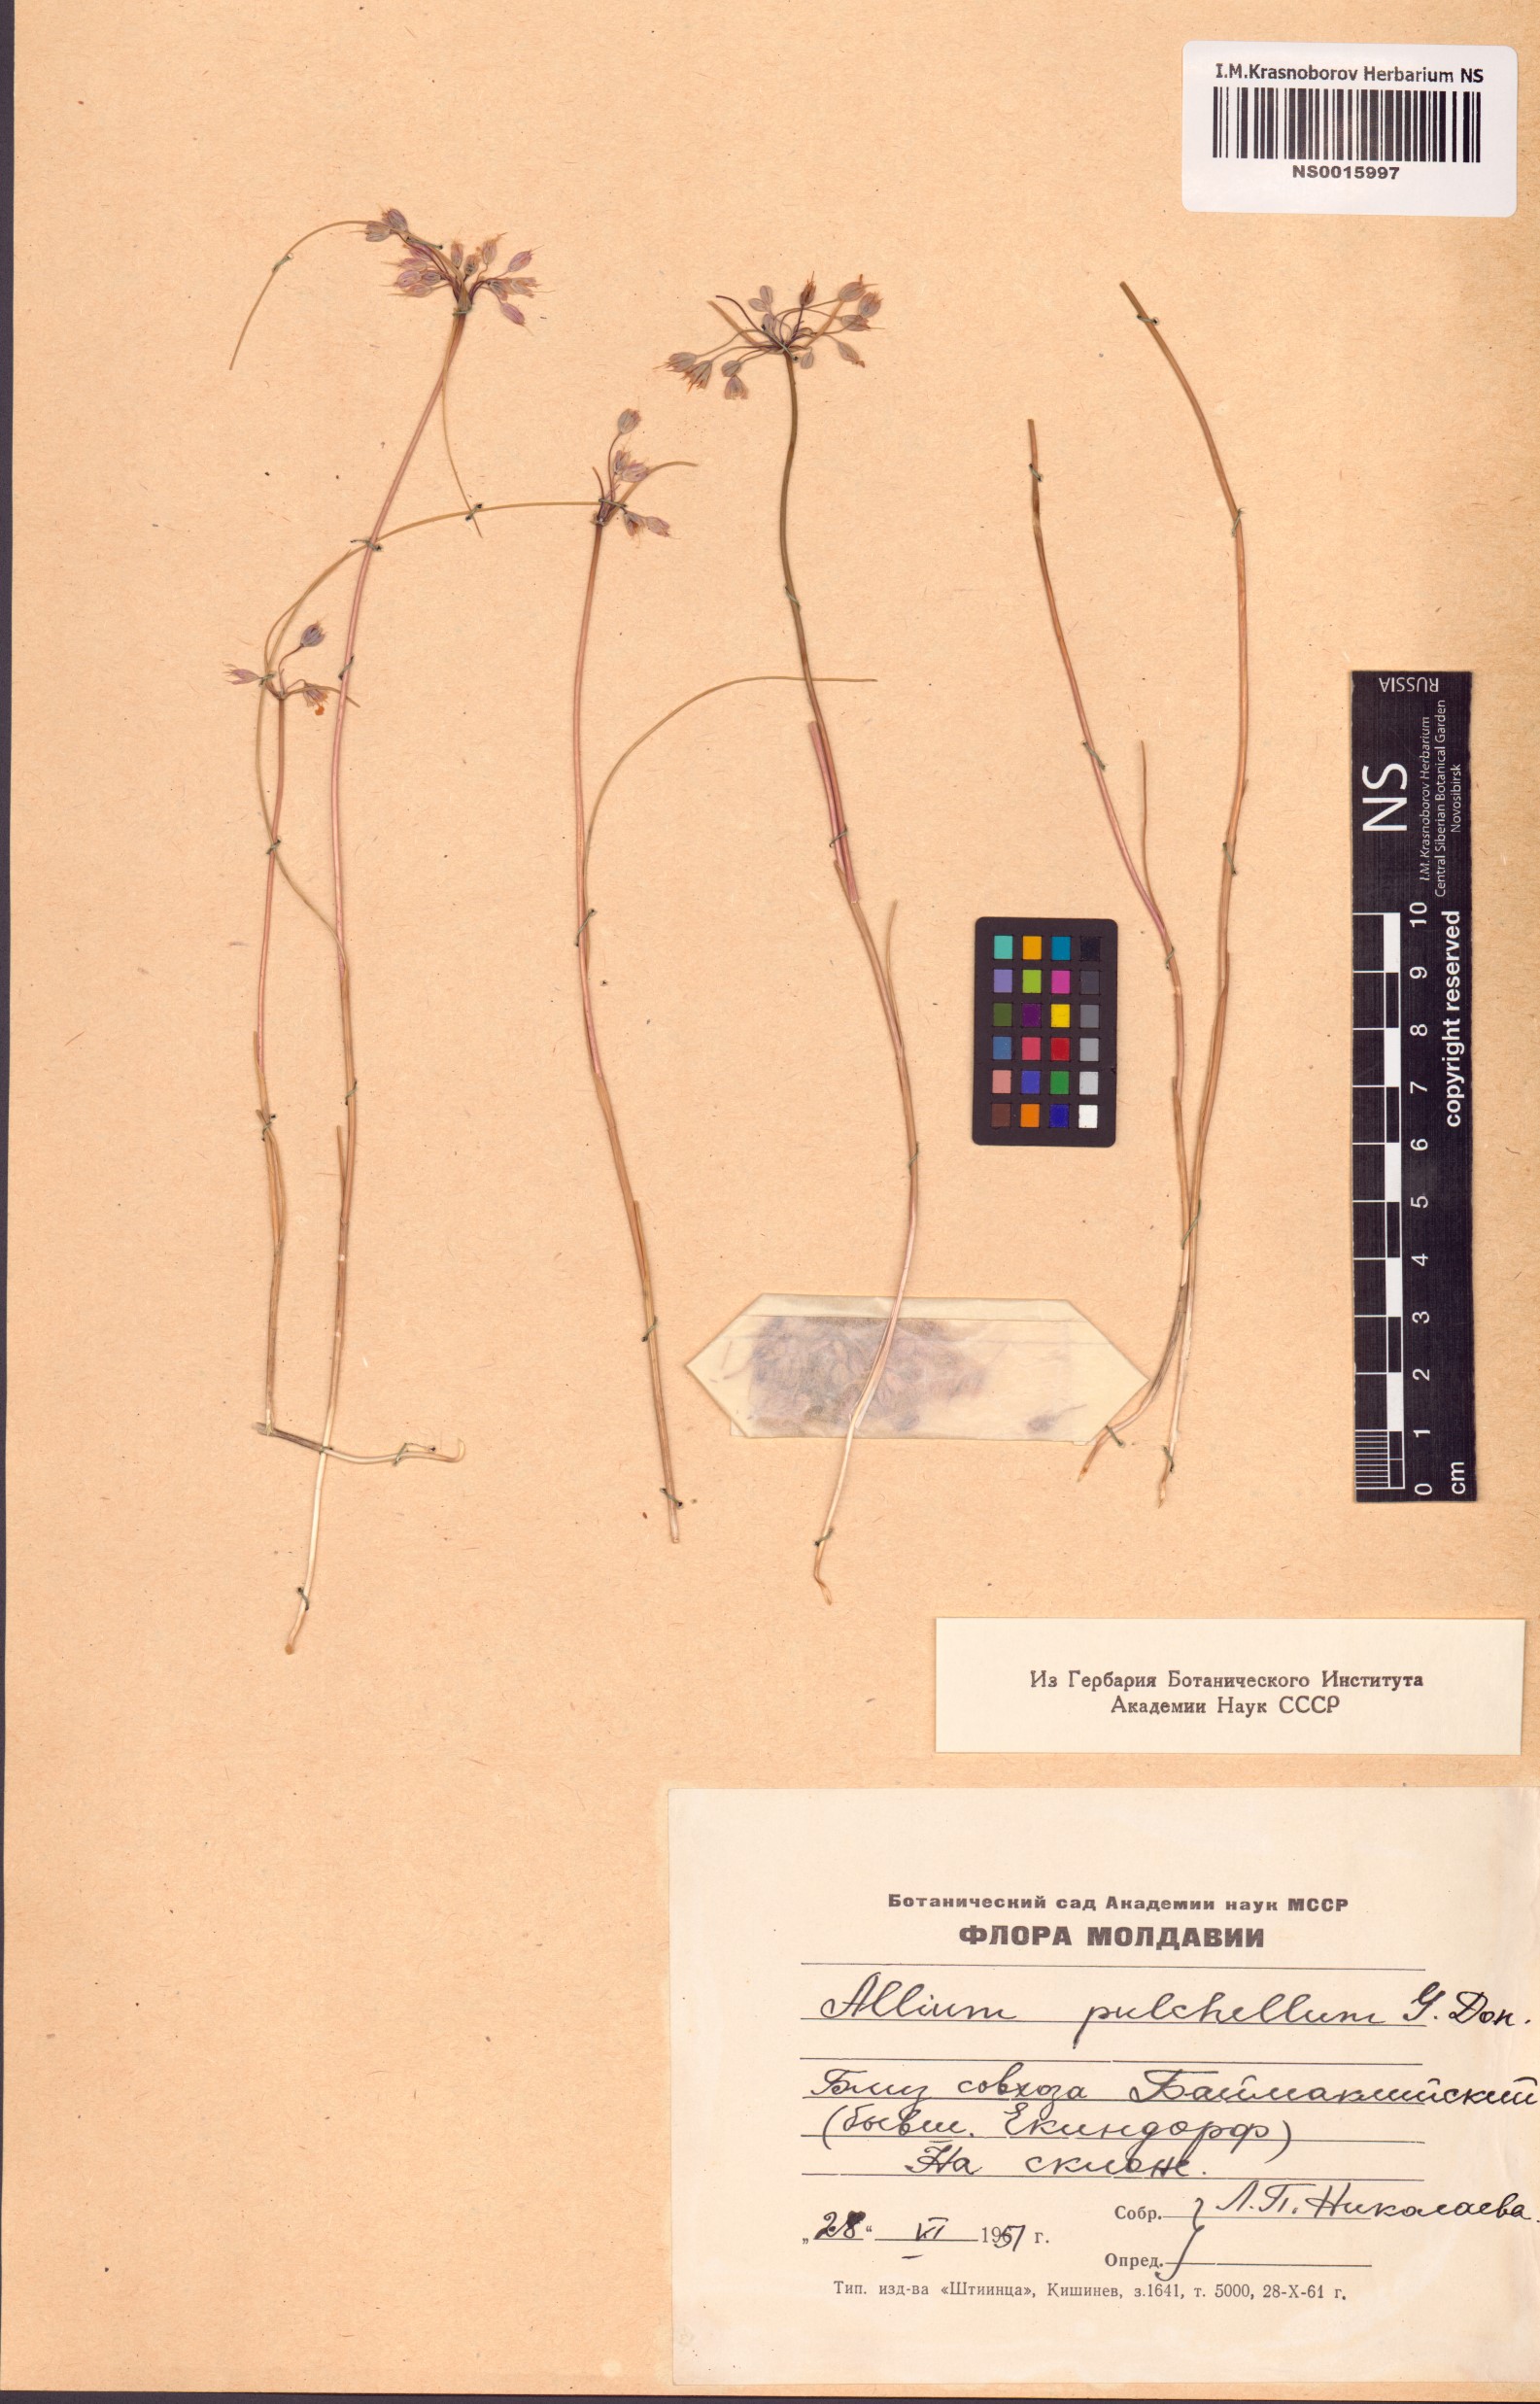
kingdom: Plantae
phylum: Tracheophyta
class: Liliopsida
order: Asparagales
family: Amaryllidaceae
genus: Allium
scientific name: Allium coloratum
